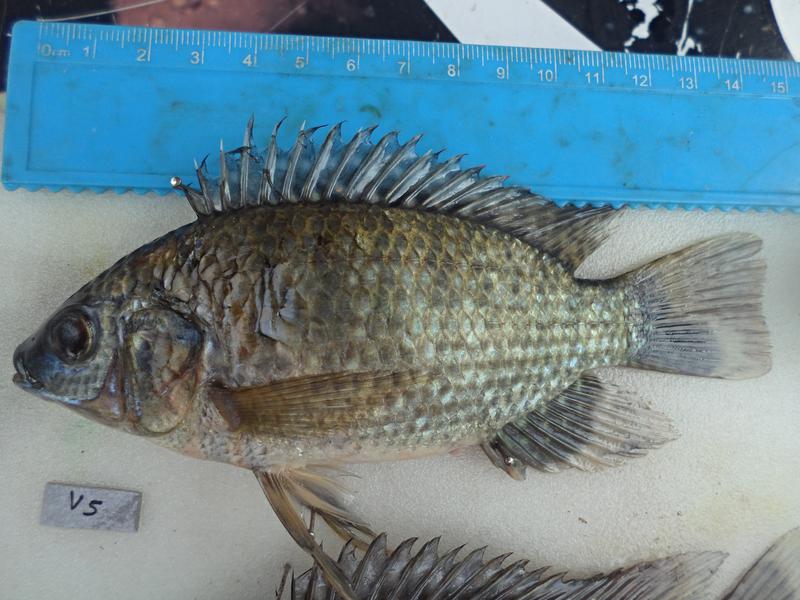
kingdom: Animalia
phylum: Chordata
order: Perciformes
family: Cichlidae
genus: Oreochromis
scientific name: Oreochromis leucostictus
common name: Blue spotted tilapia
